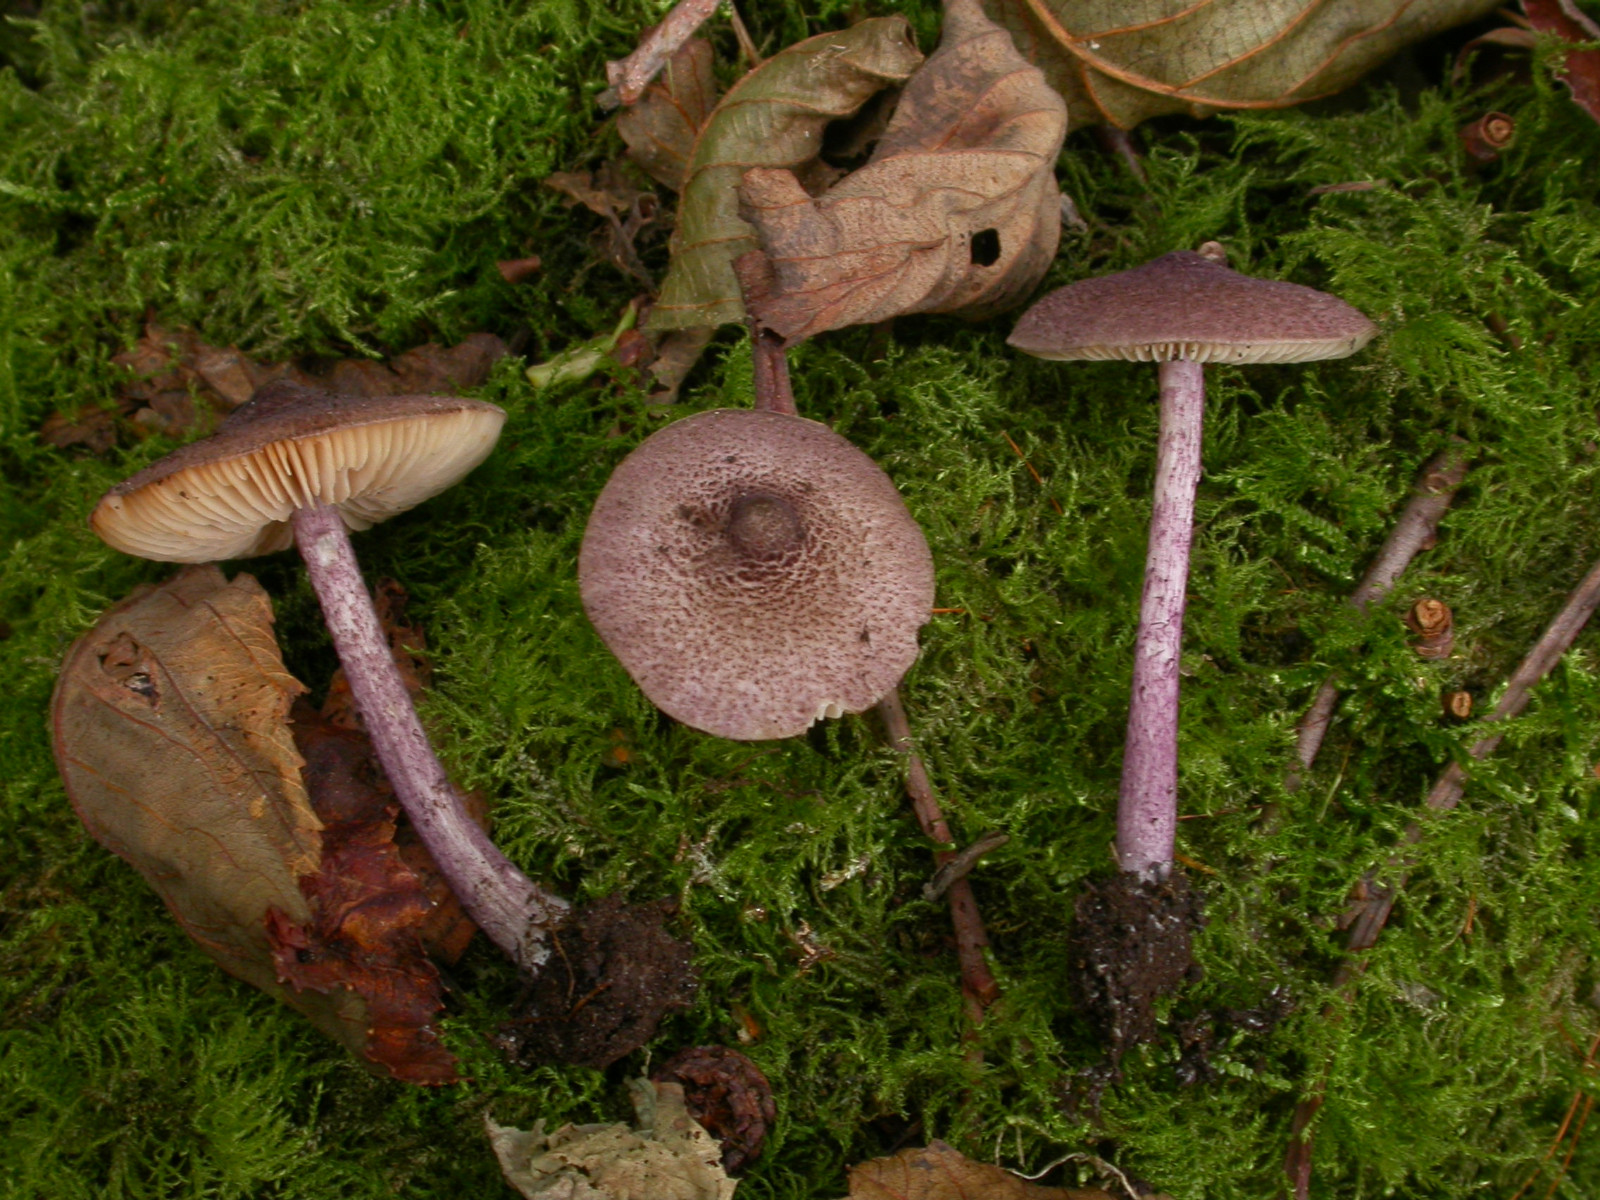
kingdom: Fungi
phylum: Basidiomycota
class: Agaricomycetes
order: Agaricales
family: Entolomataceae
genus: Entoloma
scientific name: Entoloma allochroum
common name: Rødviolet rødblad
